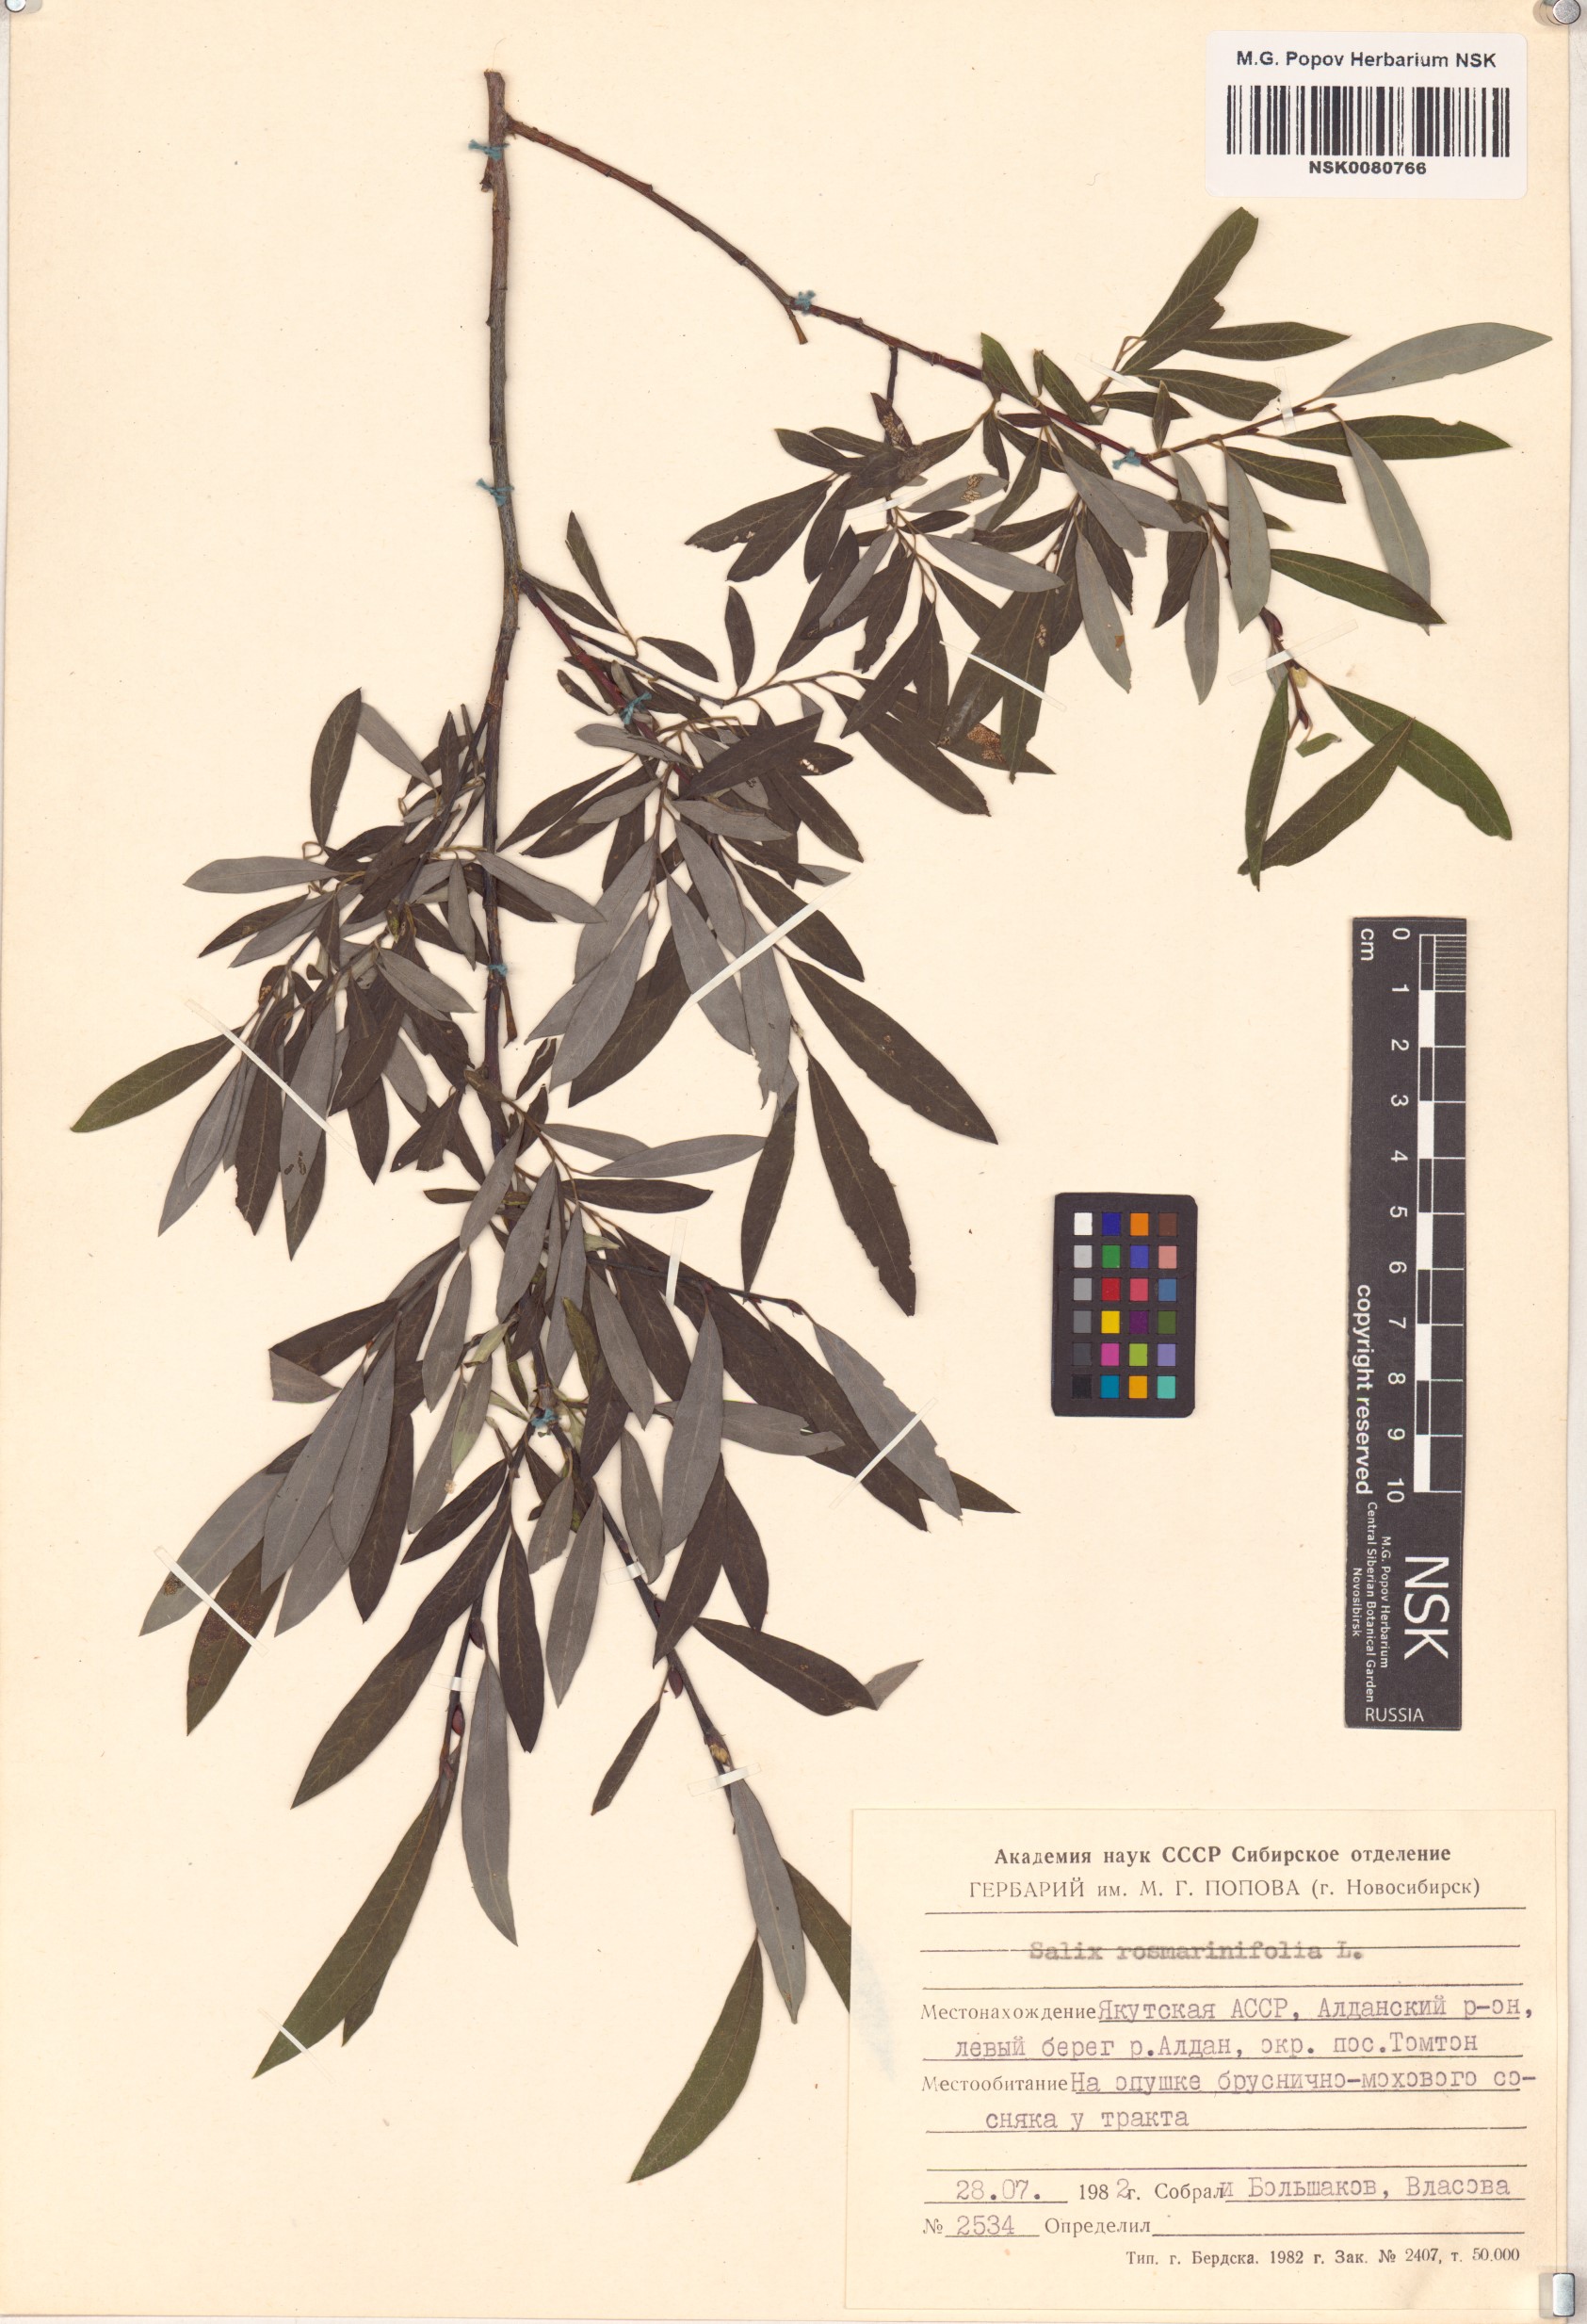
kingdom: Plantae
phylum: Tracheophyta
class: Magnoliopsida
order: Malpighiales
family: Salicaceae
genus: Salix
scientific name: Salix rosmarinifolia
